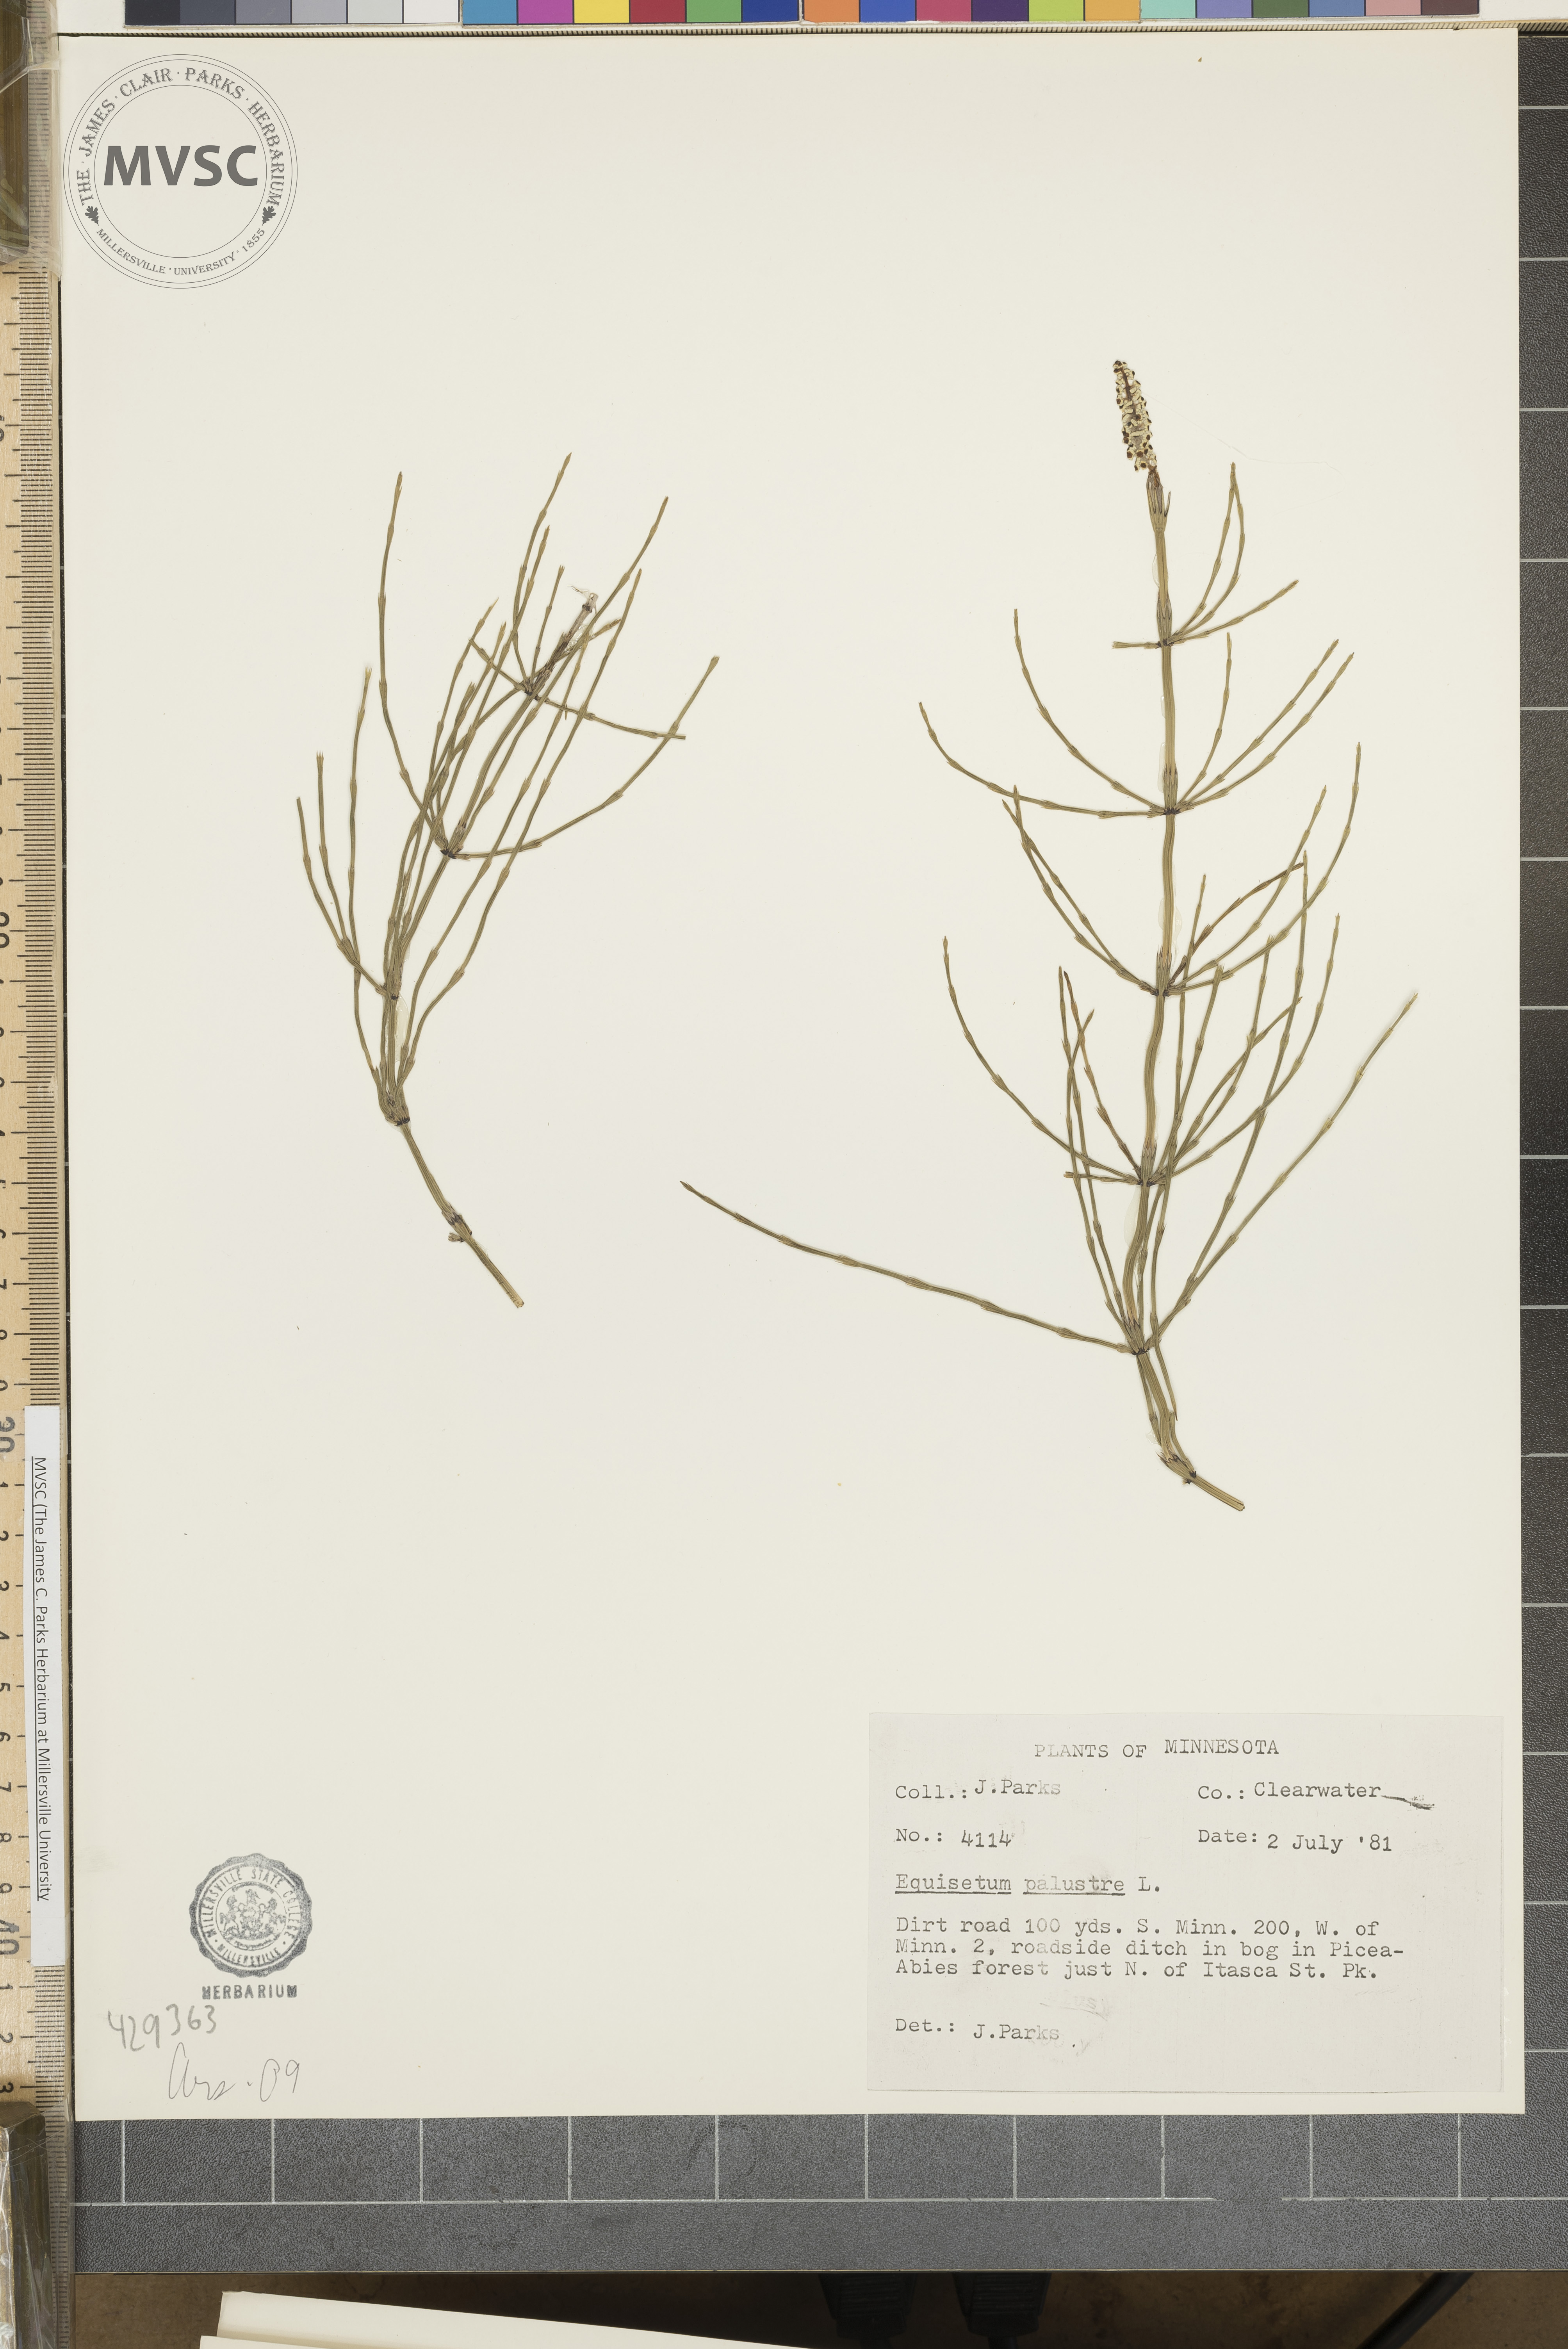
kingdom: Plantae
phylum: Tracheophyta
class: Polypodiopsida
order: Equisetales
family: Equisetaceae
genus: Equisetum
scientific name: Equisetum palustre
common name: Marsh horsetail
